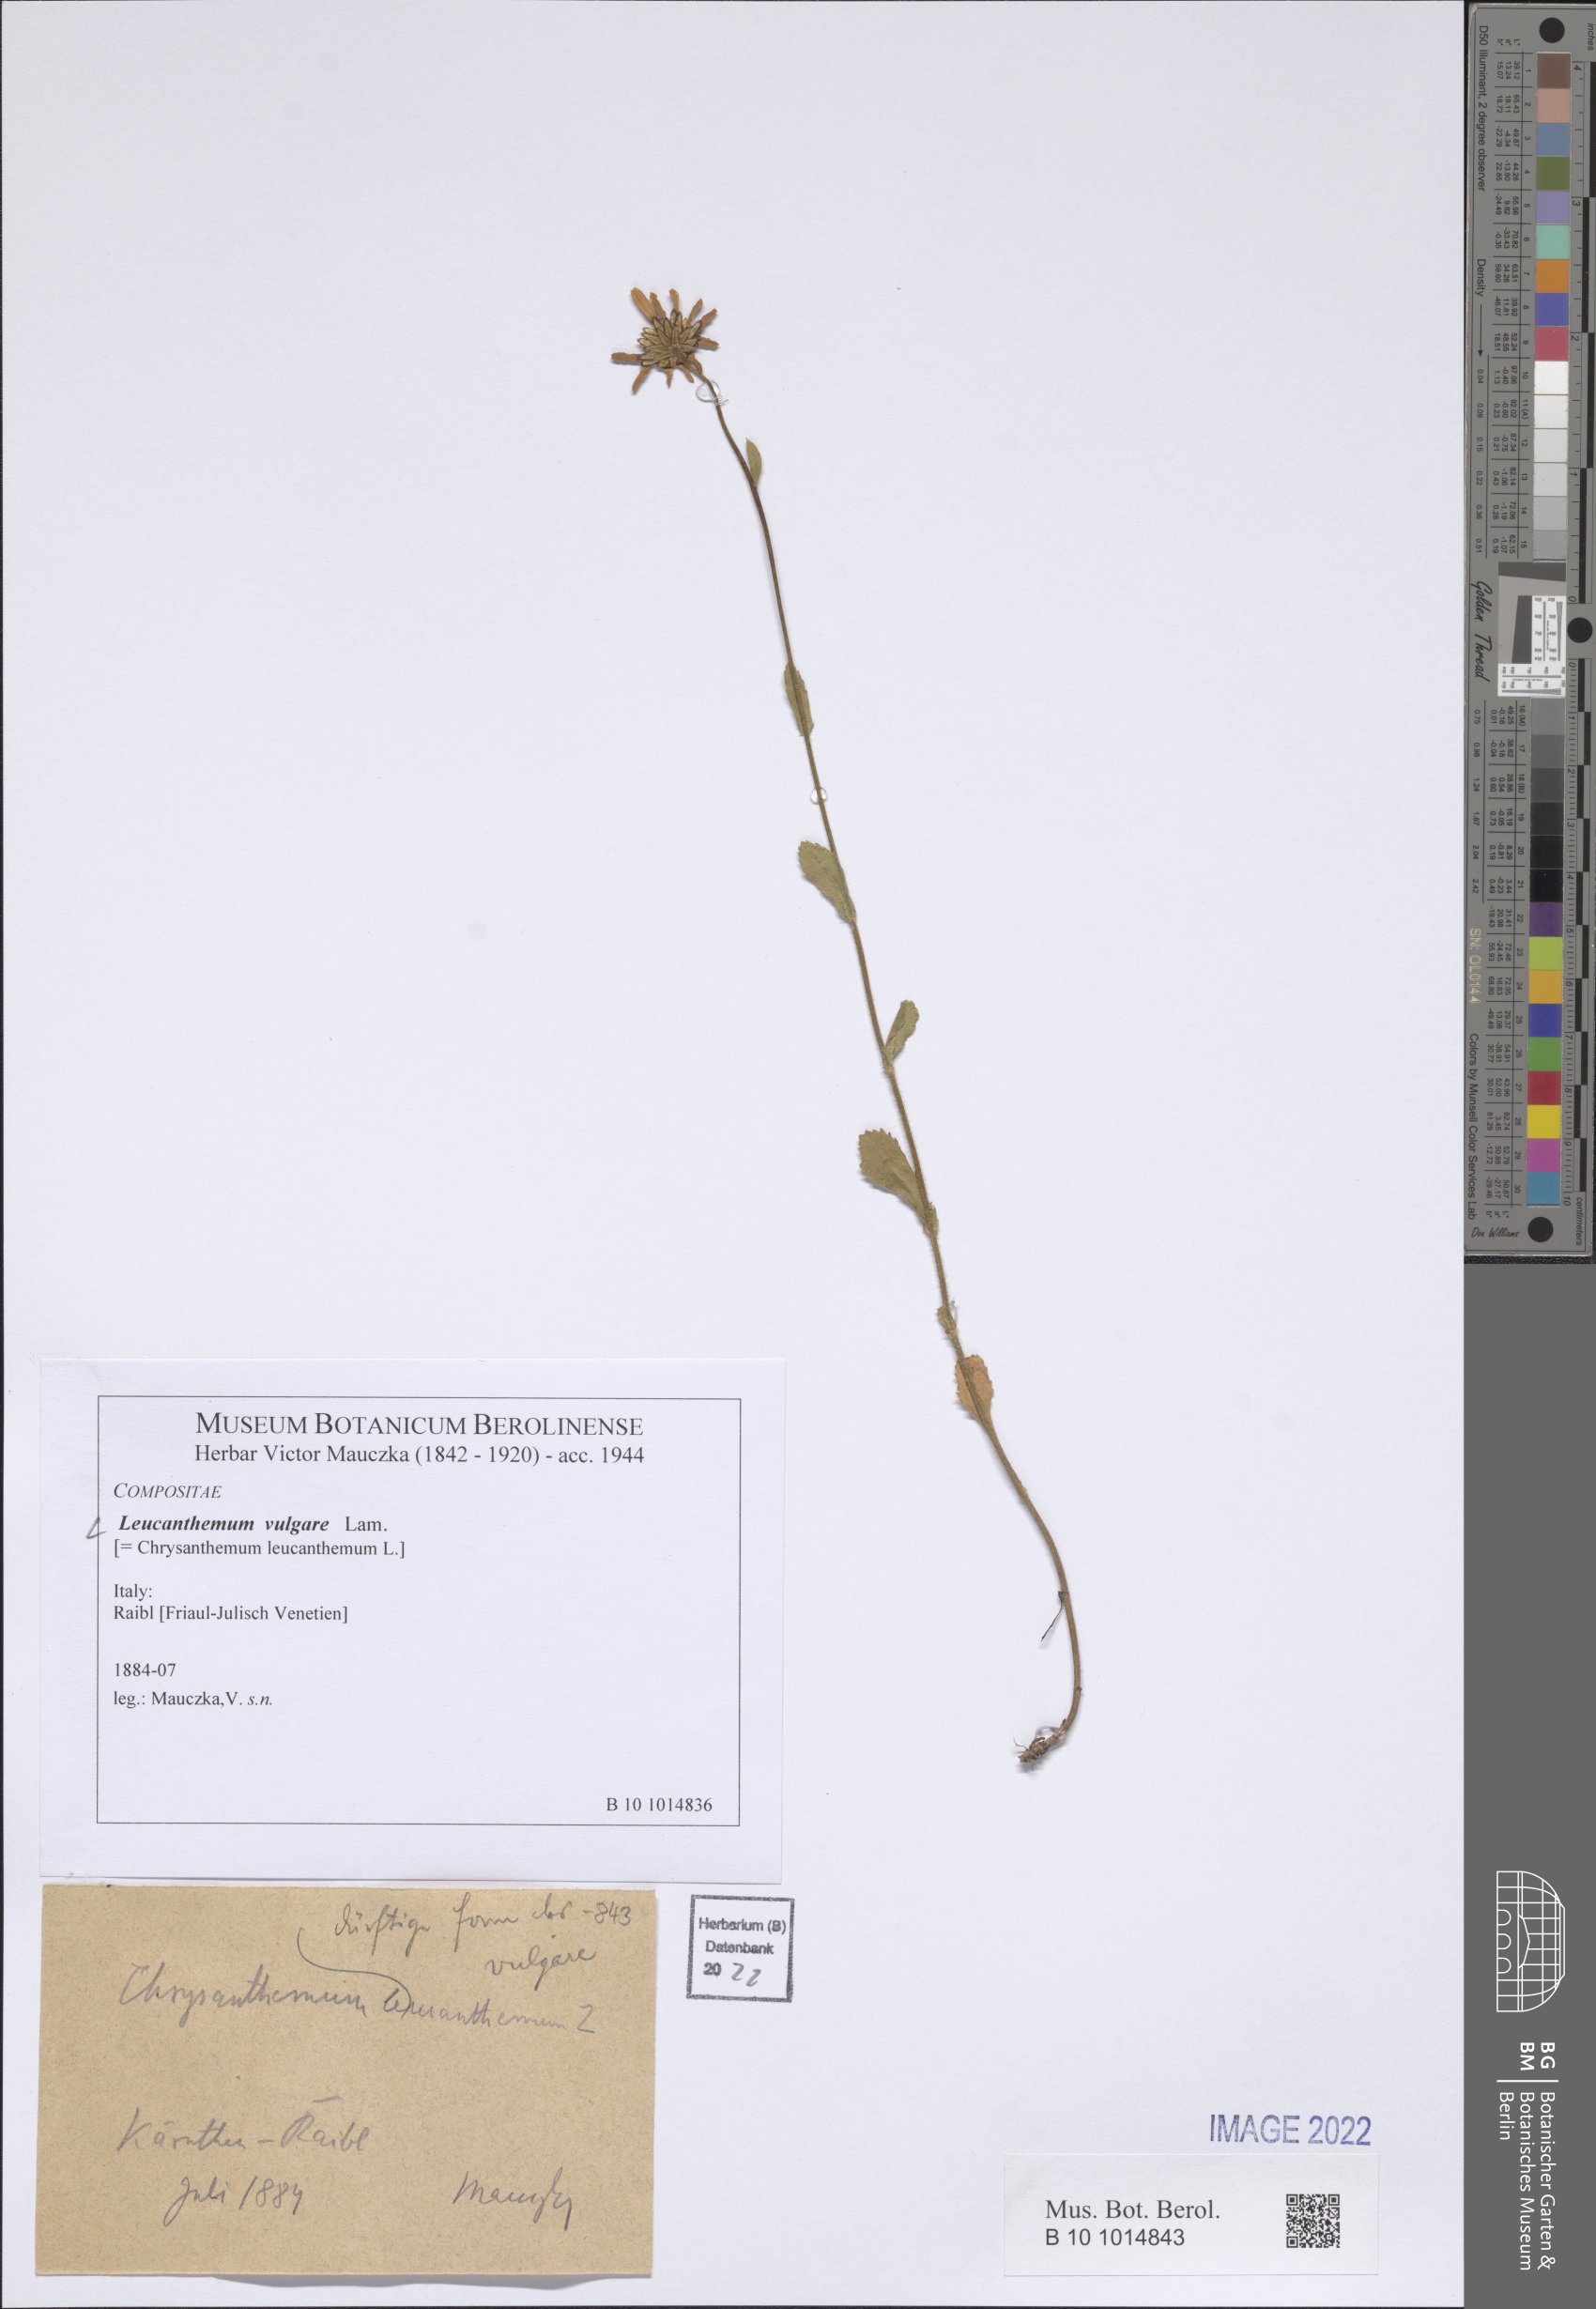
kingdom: Plantae
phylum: Tracheophyta
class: Magnoliopsida
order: Asterales
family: Asteraceae
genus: Leucanthemum
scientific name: Leucanthemum ircutianum
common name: Daisy
